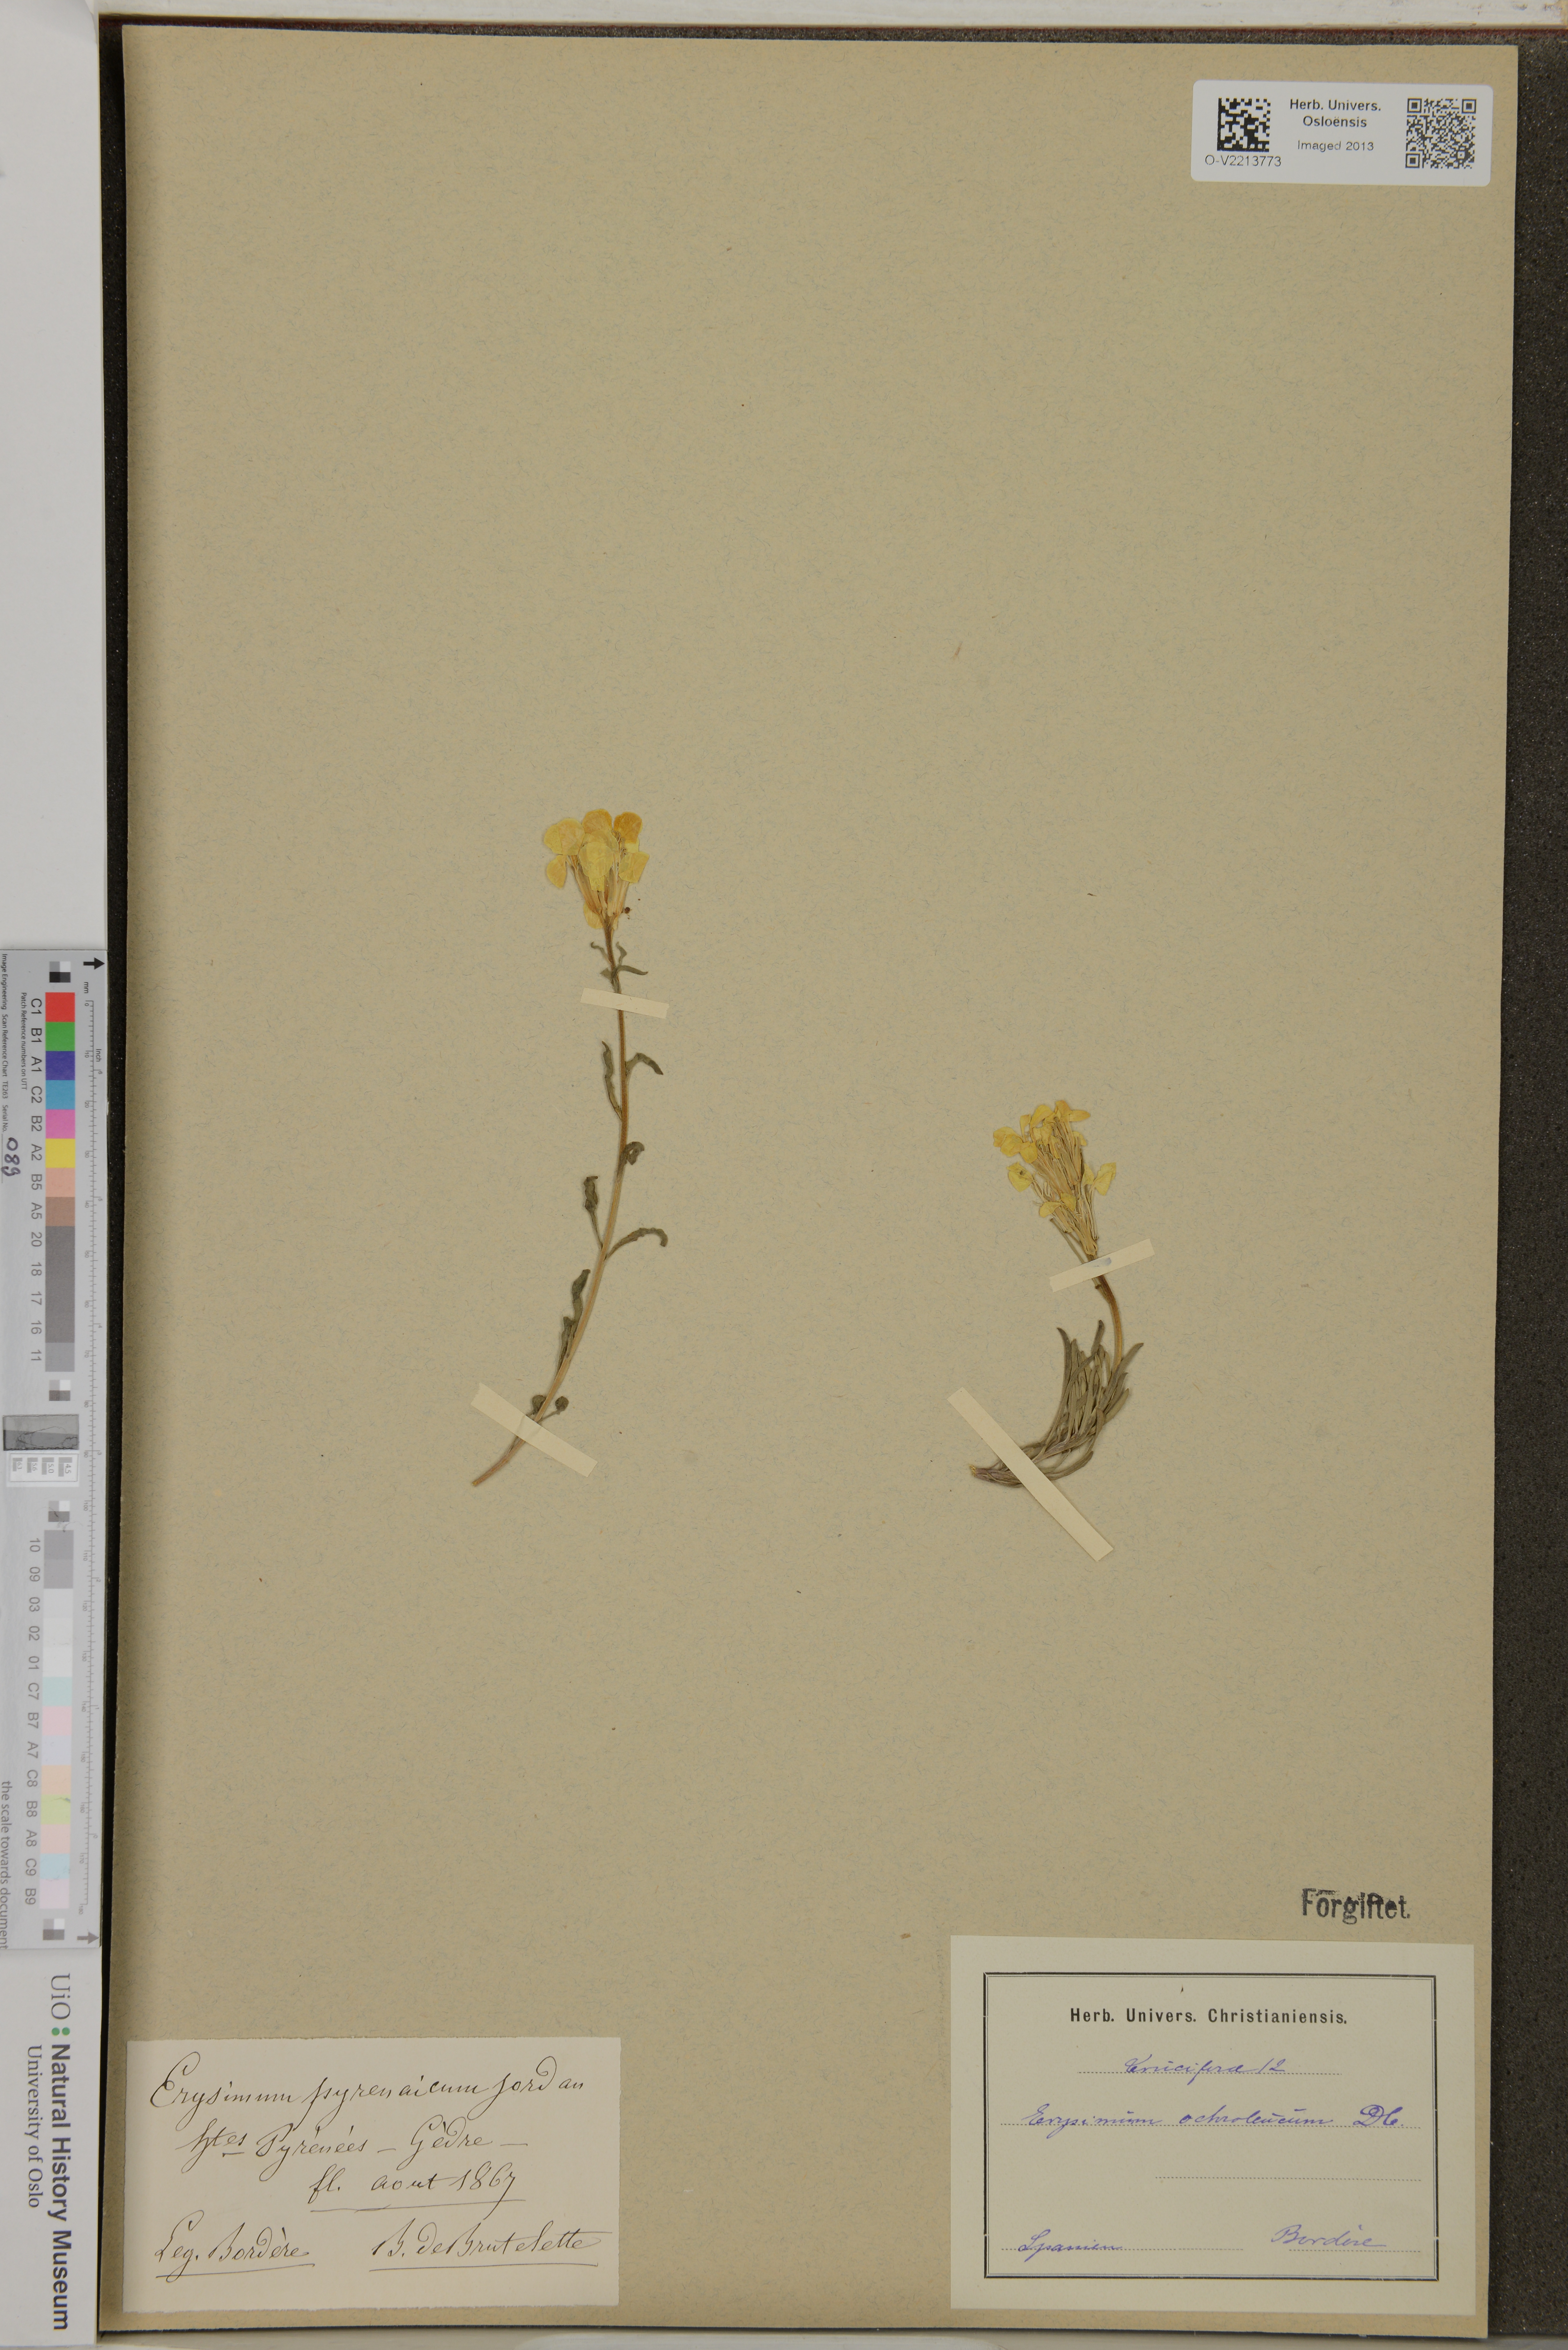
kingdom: Plantae
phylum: Tracheophyta
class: Magnoliopsida
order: Brassicales
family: Brassicaceae
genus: Erysimum
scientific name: Erysimum seipkae
